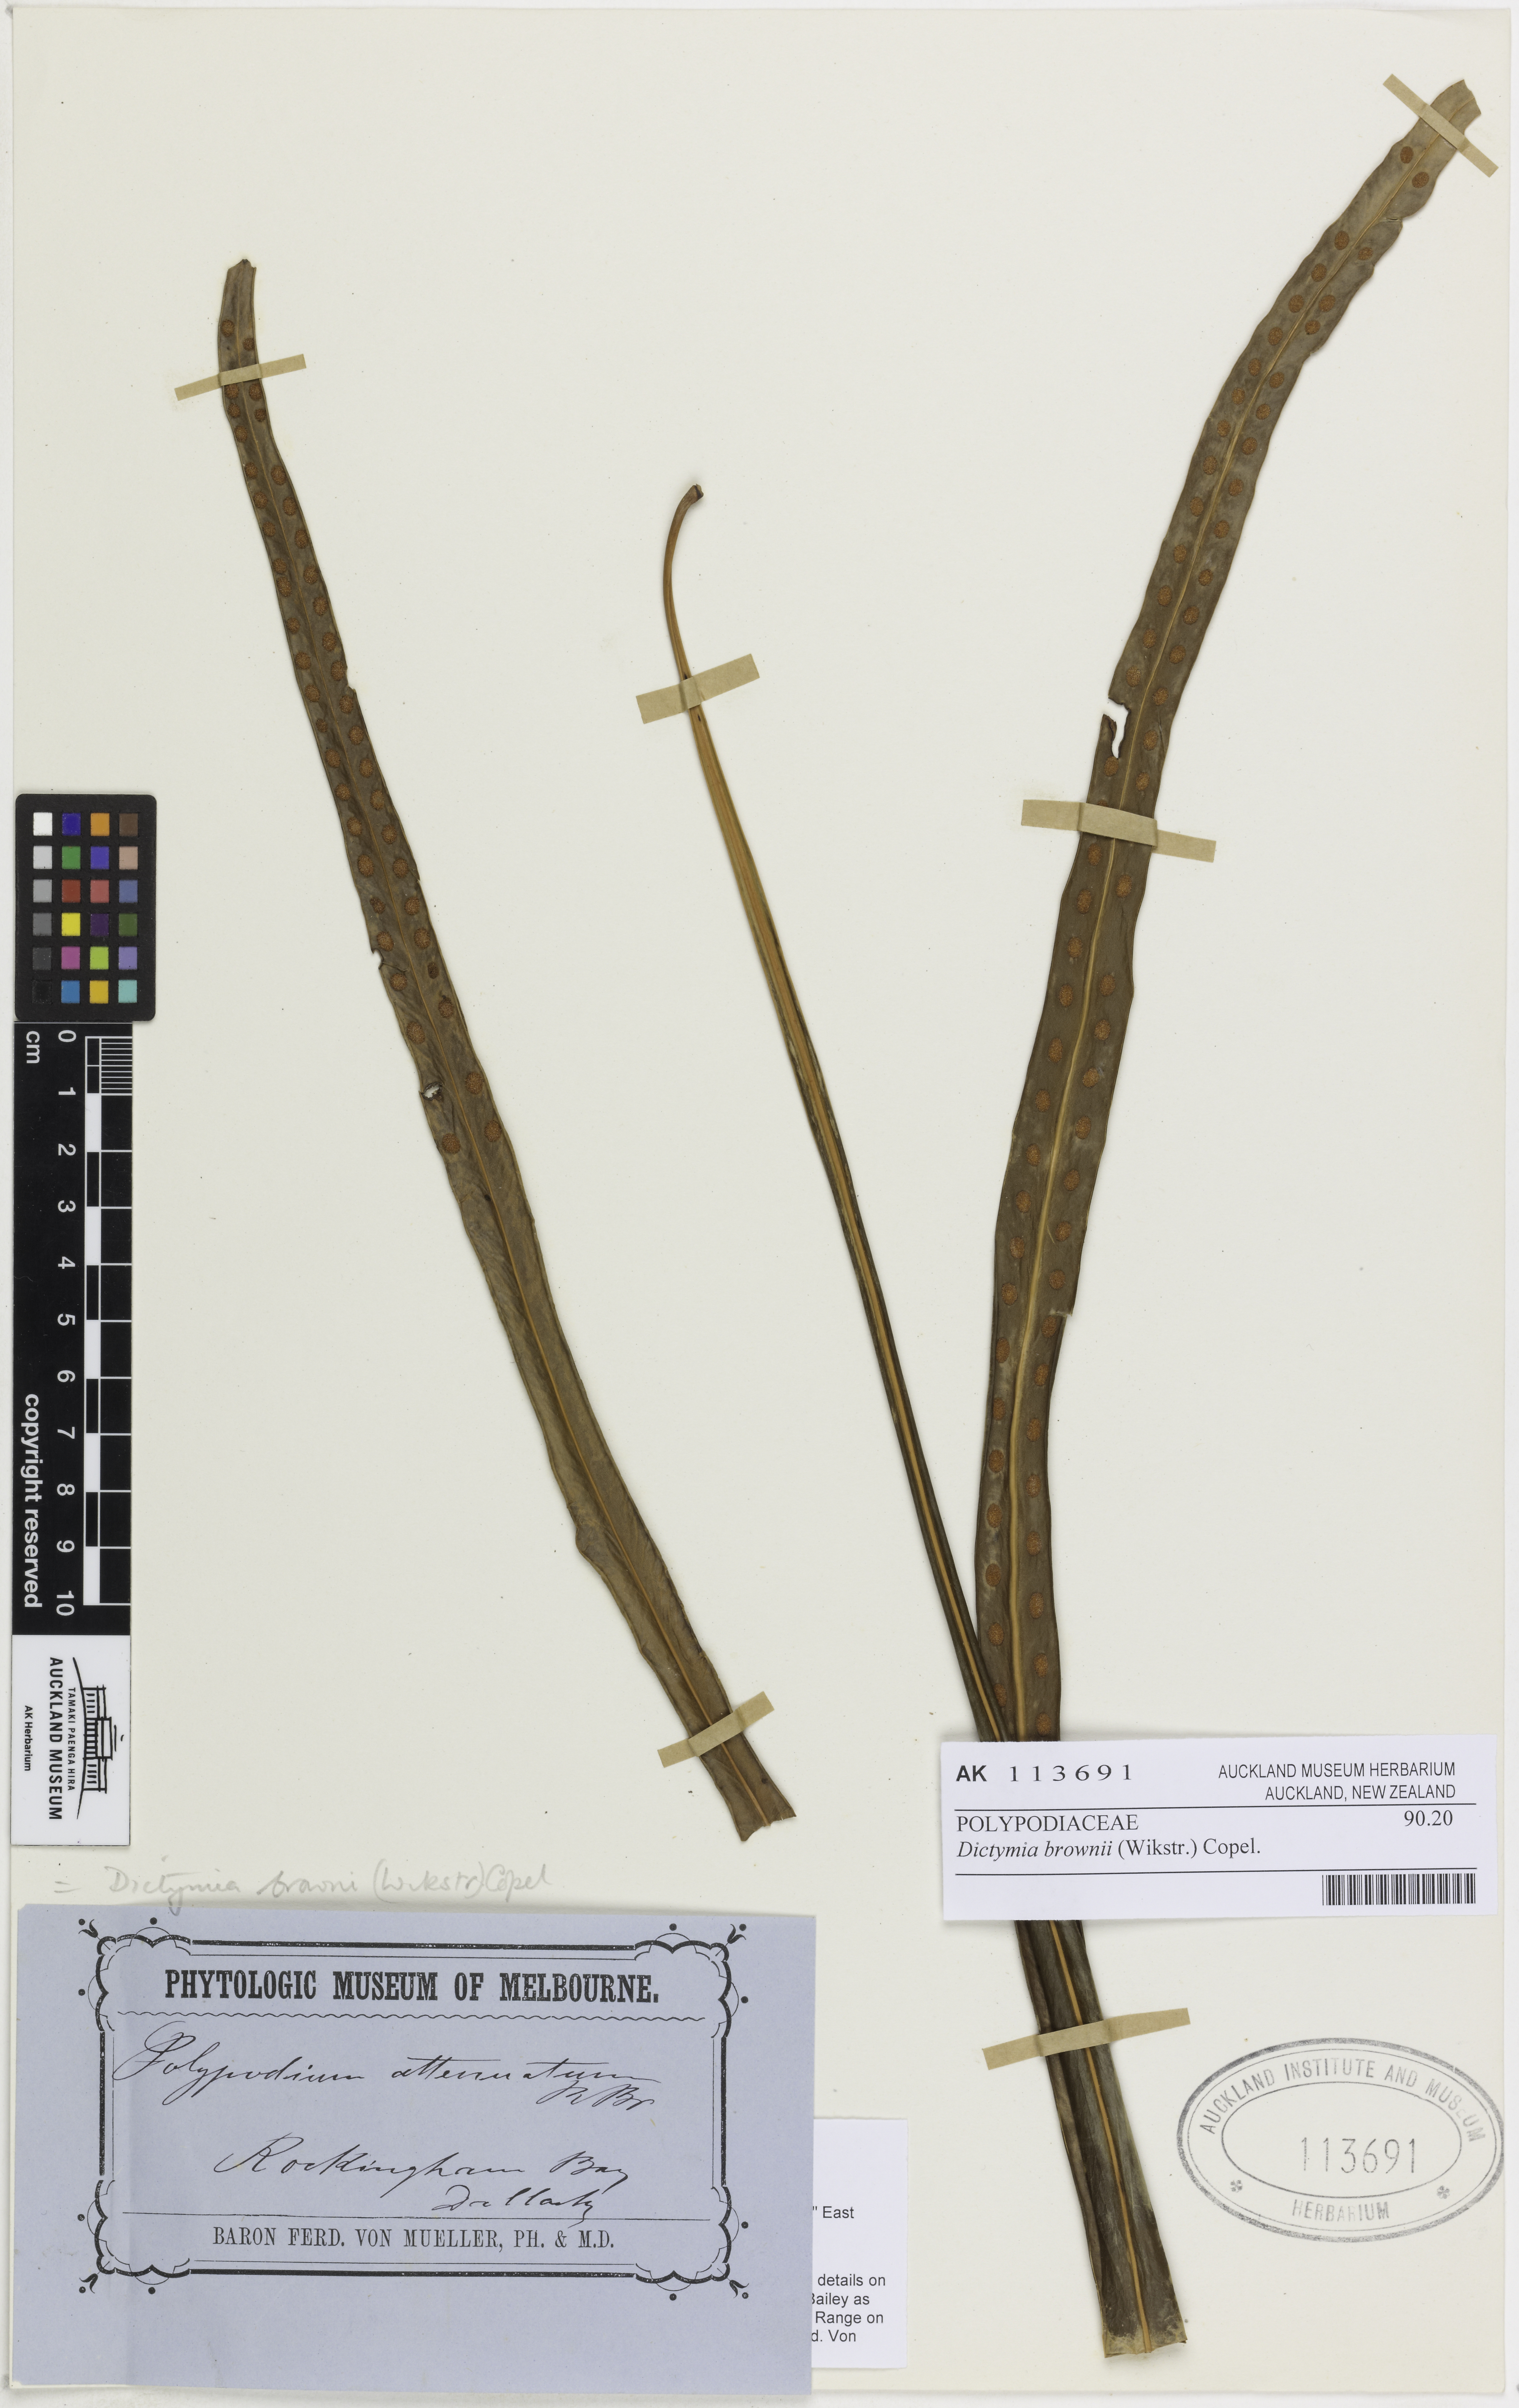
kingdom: Plantae
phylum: Tracheophyta
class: Polypodiopsida
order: Polypodiales
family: Polypodiaceae
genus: Dictymia
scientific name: Dictymia brownii
